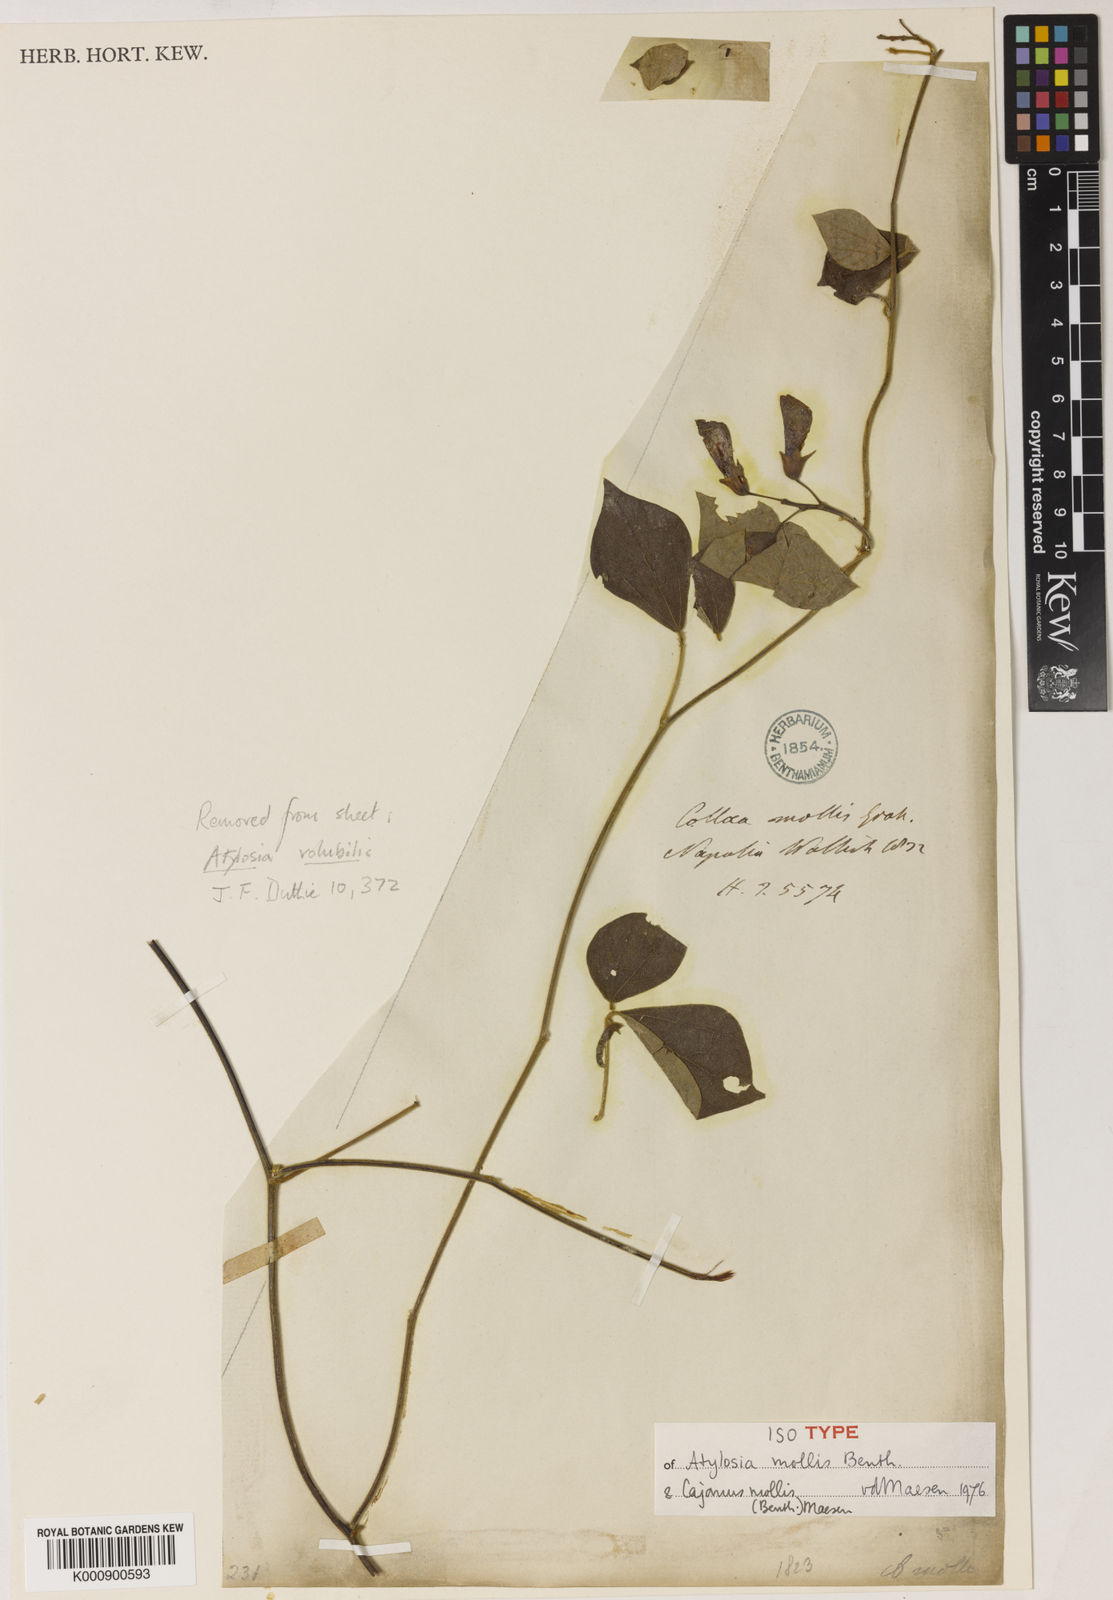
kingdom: Plantae
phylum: Tracheophyta
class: Magnoliopsida
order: Fabales
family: Fabaceae
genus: Cajanus
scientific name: Cajanus mollis
